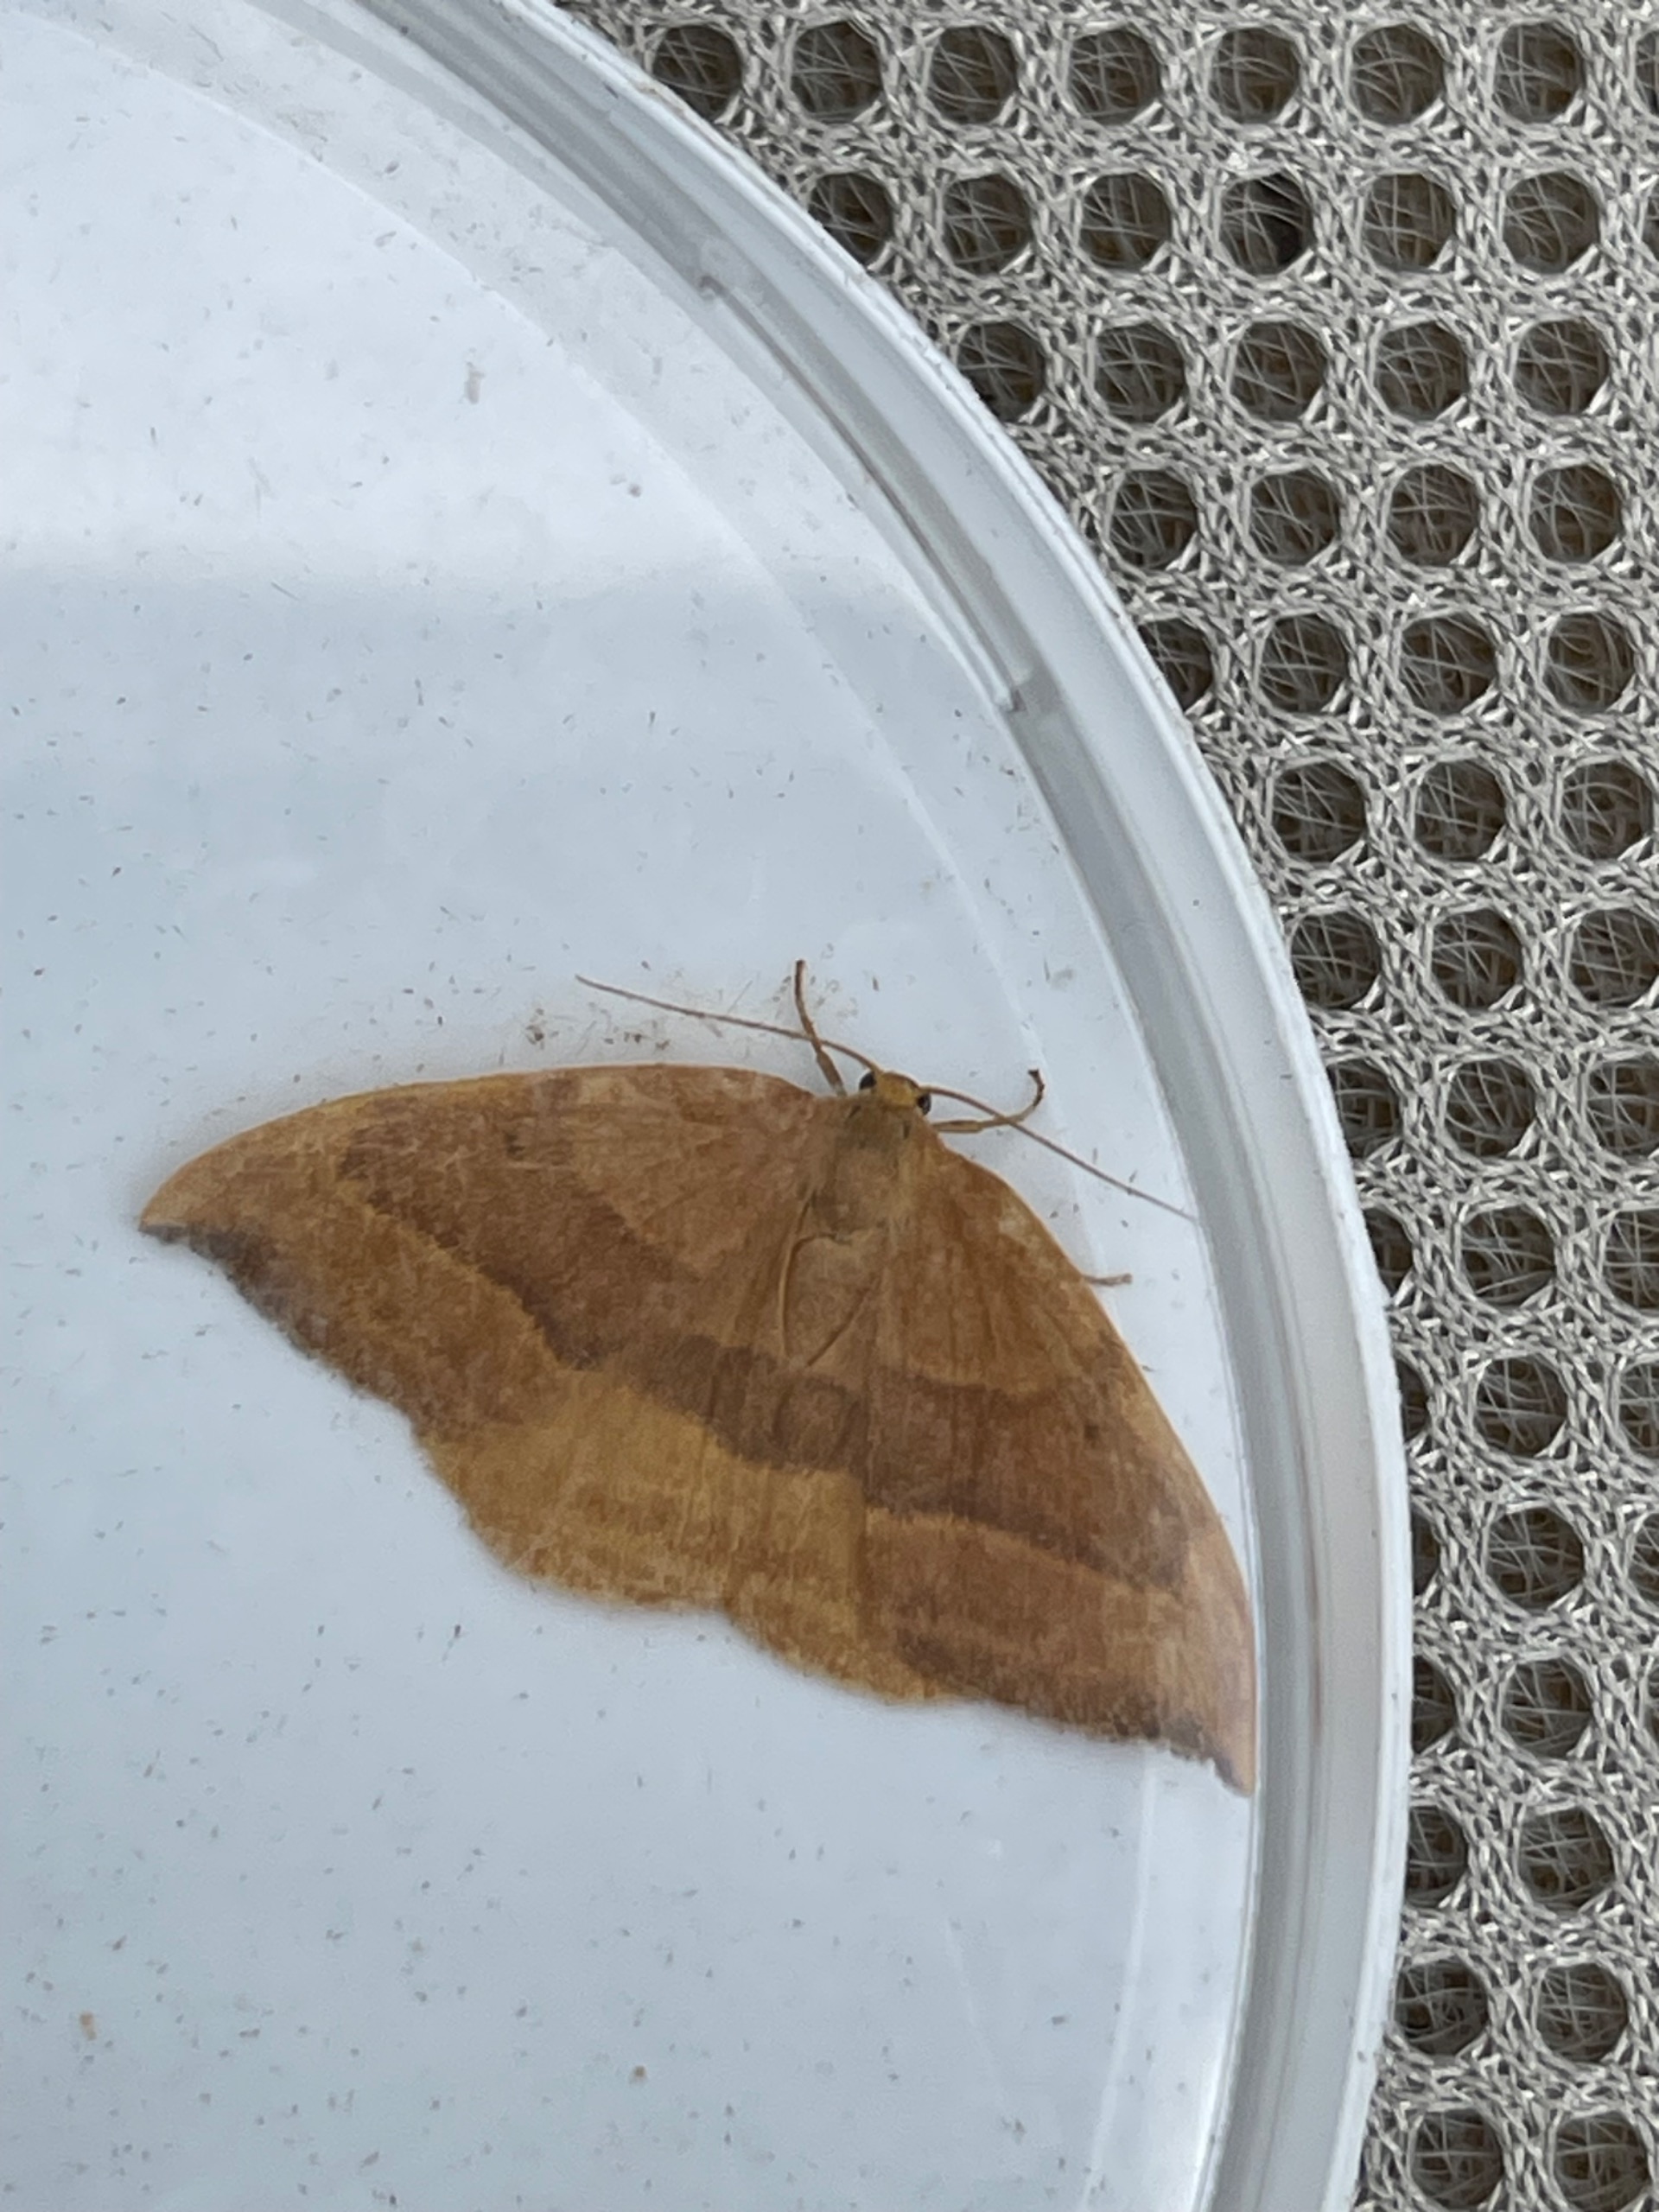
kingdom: Animalia
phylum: Arthropoda
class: Insecta
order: Lepidoptera
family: Drepanidae
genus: Watsonalla
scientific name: Watsonalla cultraria
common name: Bøgeseglvinge
